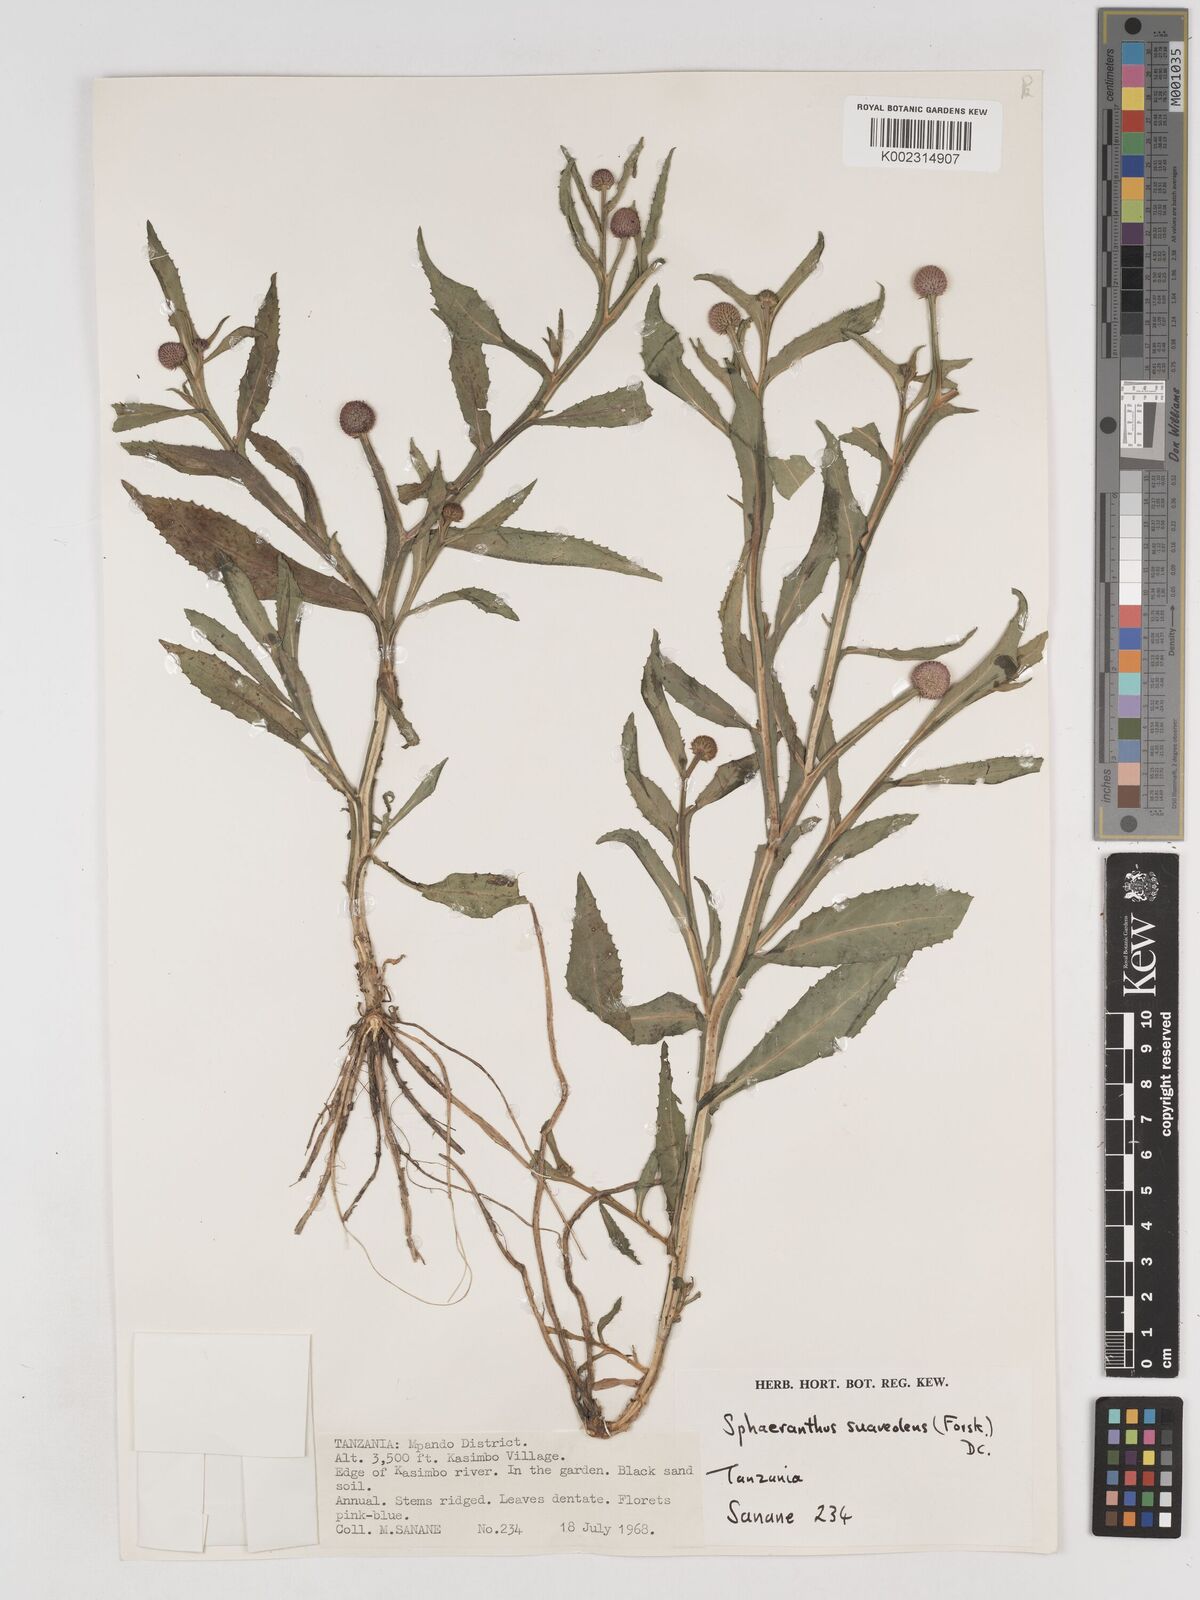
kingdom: Plantae
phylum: Tracheophyta
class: Magnoliopsida
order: Asterales
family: Asteraceae
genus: Sphaeranthus
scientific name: Sphaeranthus suaveolens
